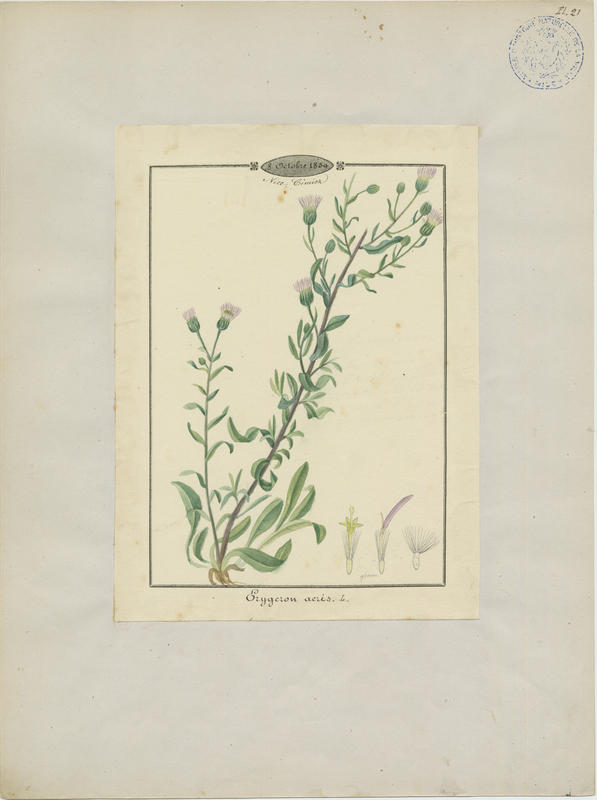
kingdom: Plantae
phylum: Tracheophyta
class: Magnoliopsida
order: Asterales
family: Asteraceae
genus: Erigeron
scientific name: Erigeron acer
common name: Blue fleabane
